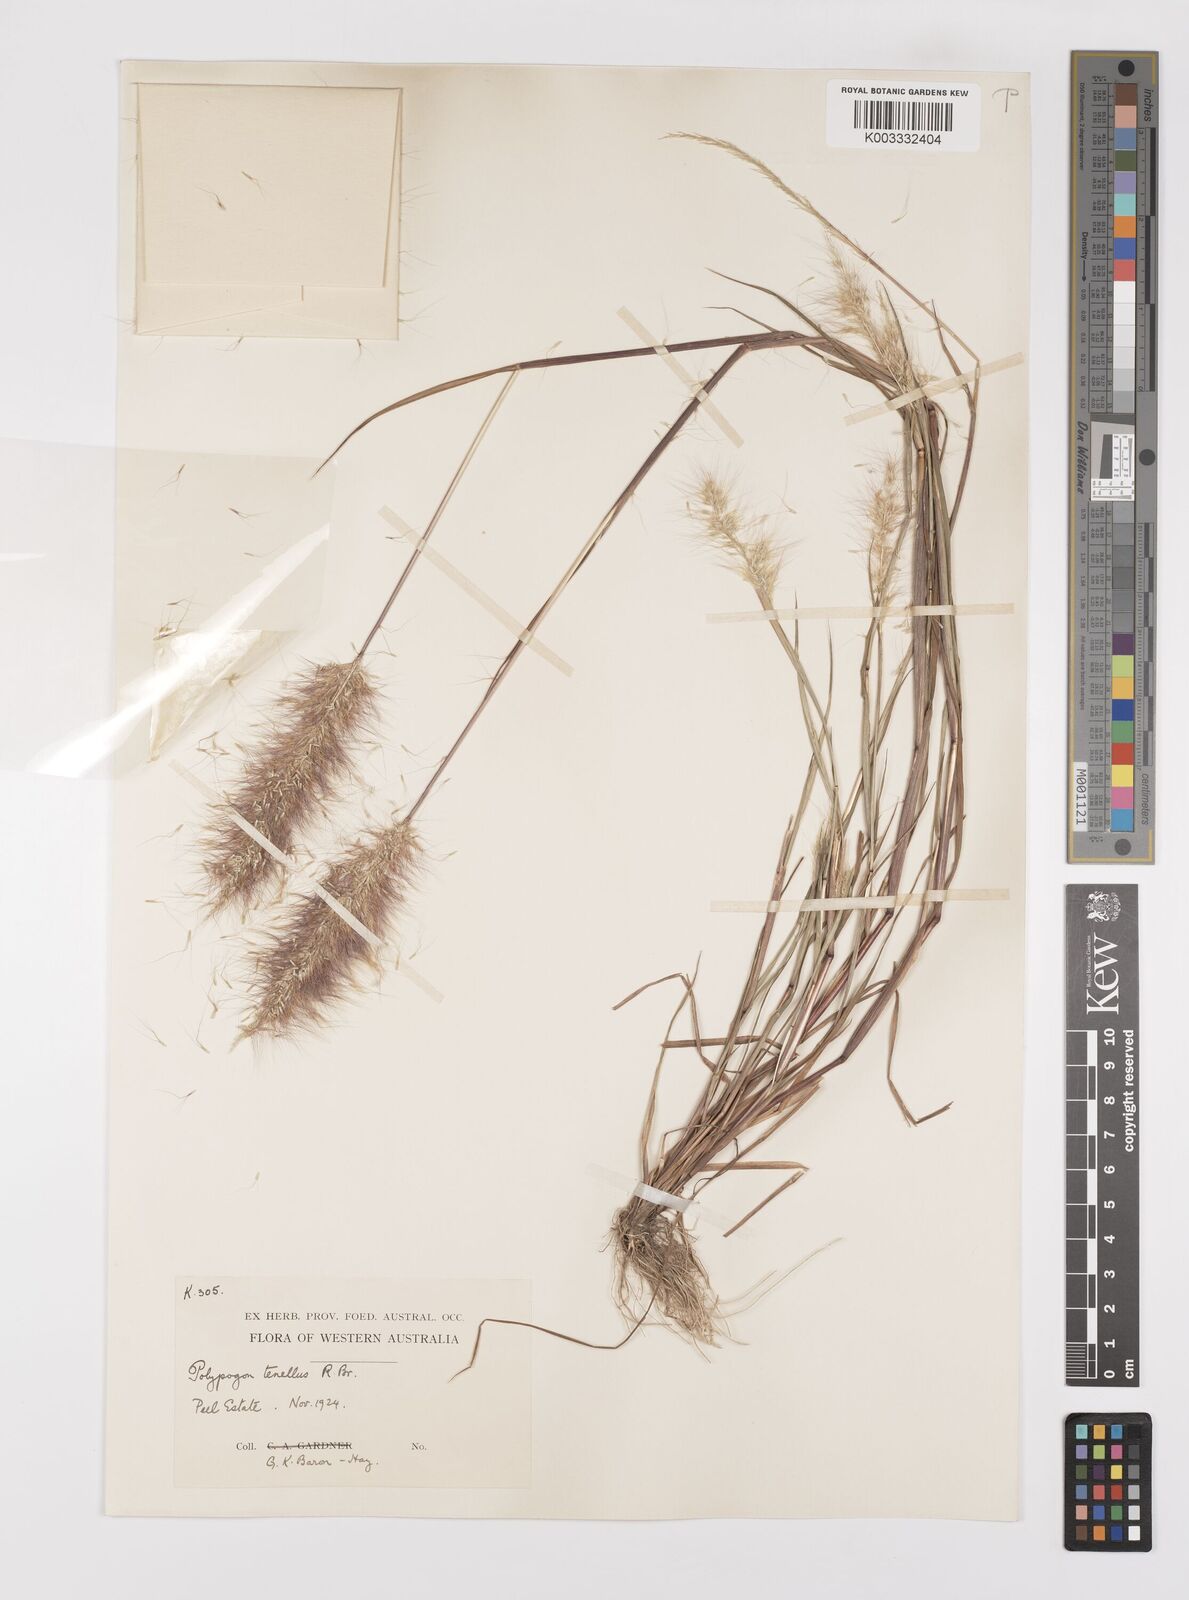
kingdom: Plantae
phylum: Tracheophyta
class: Liliopsida
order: Poales
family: Poaceae
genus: Polypogon
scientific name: Polypogon tenellus
